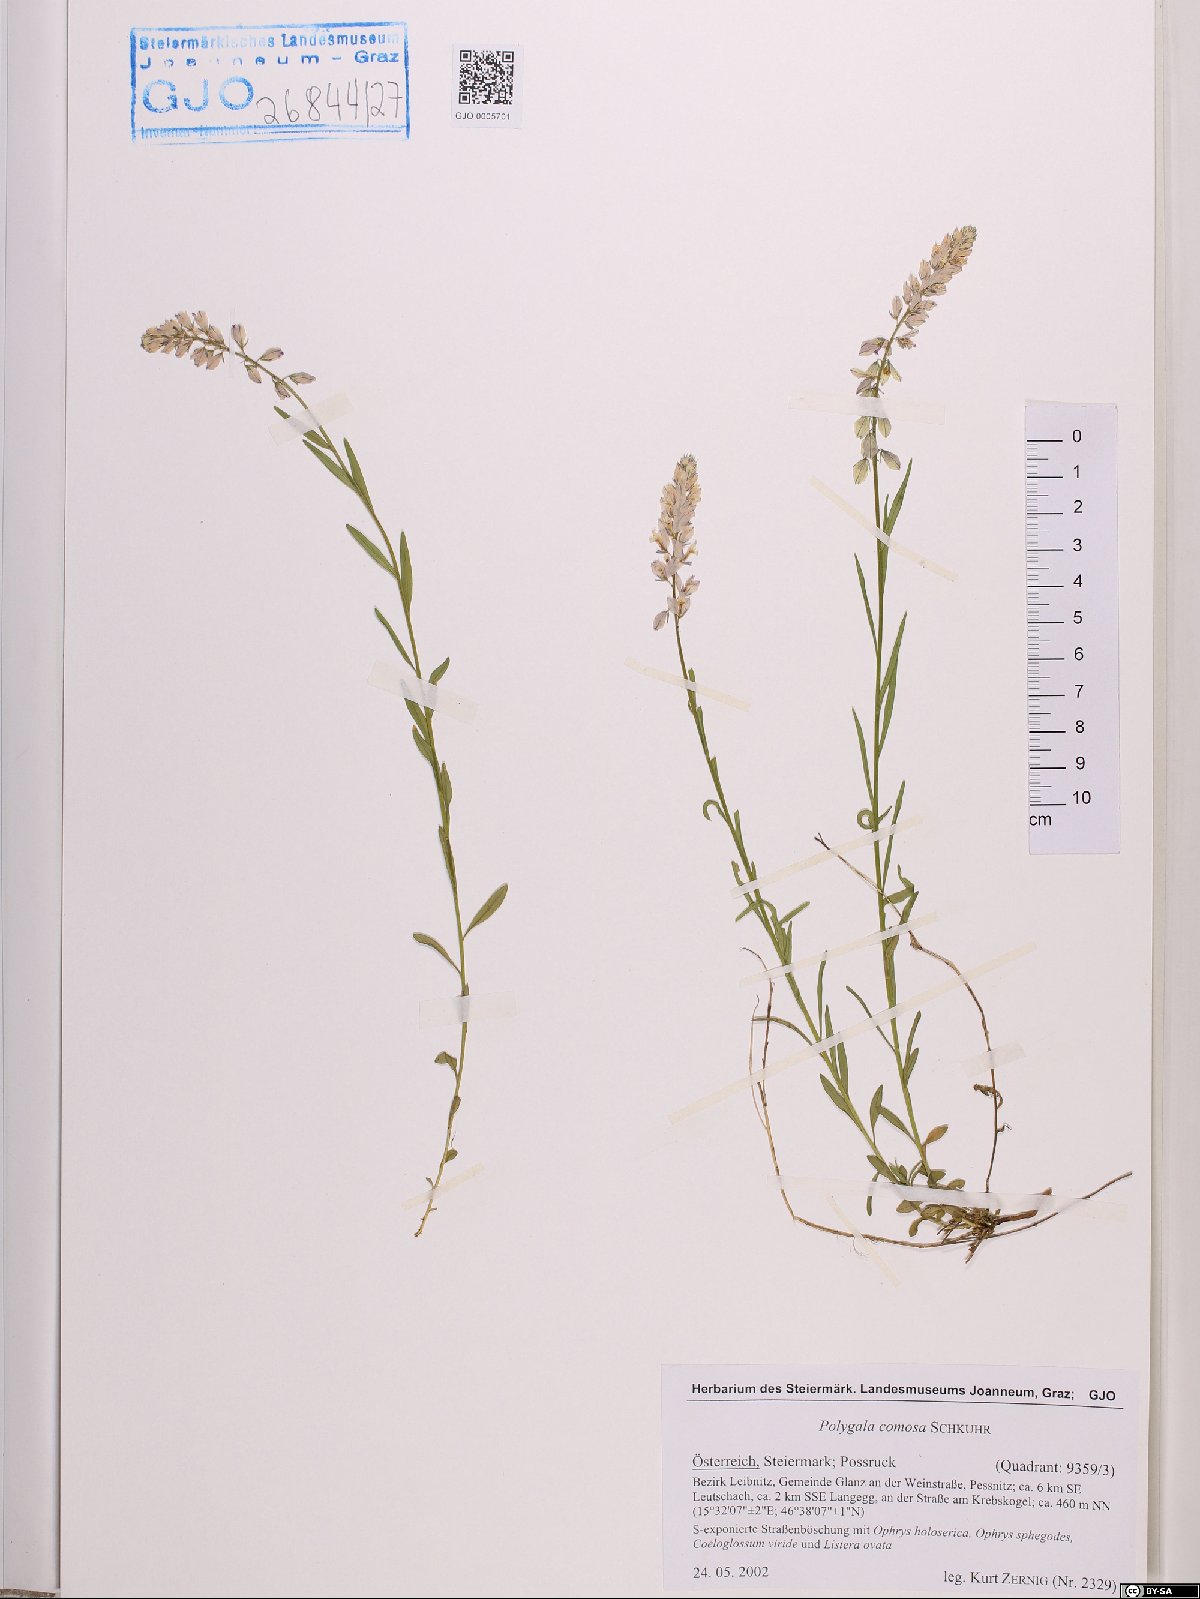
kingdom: Plantae
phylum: Tracheophyta
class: Magnoliopsida
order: Fabales
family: Polygalaceae
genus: Polygala
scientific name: Polygala comosa
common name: Tufted milkwort
